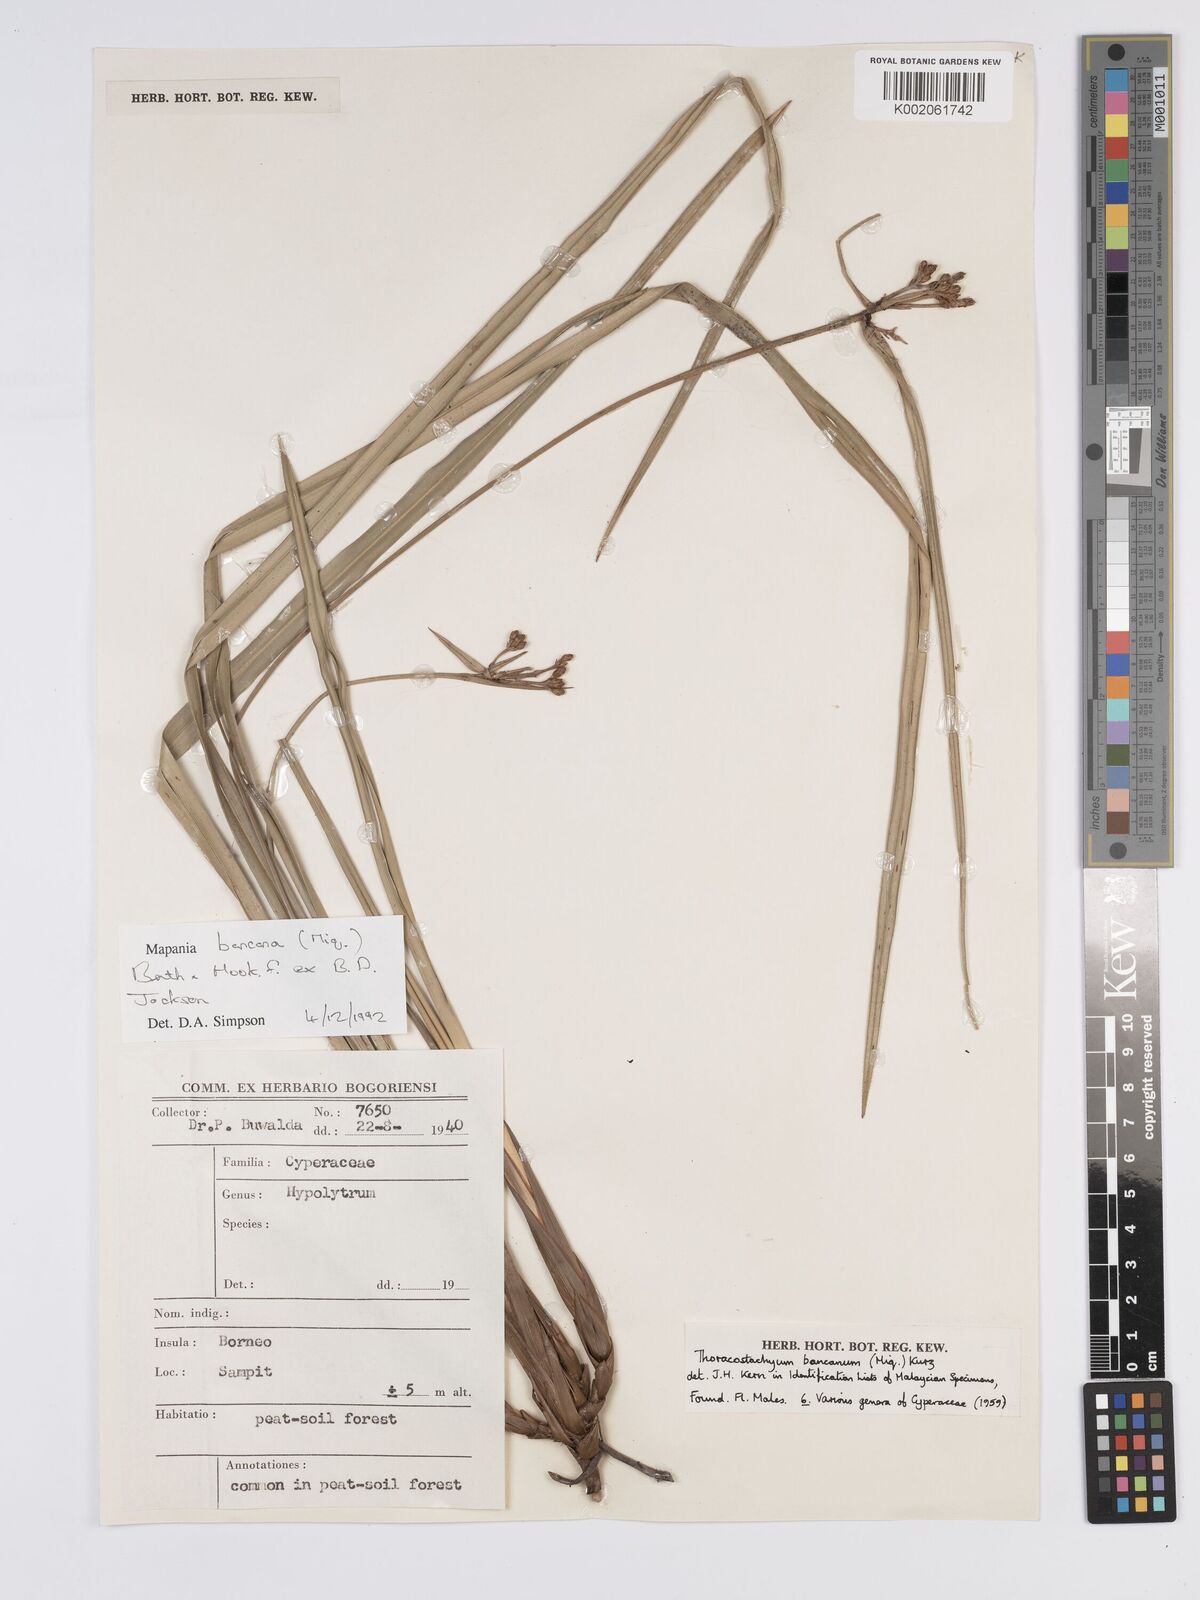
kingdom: Plantae
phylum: Tracheophyta
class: Liliopsida
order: Poales
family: Cyperaceae
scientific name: Cyperaceae
